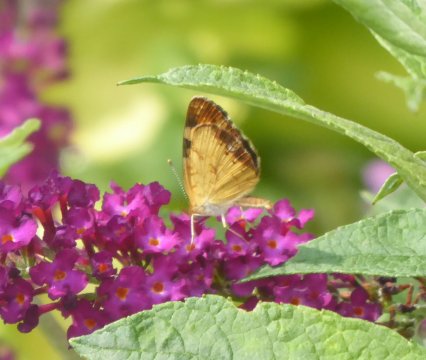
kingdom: Animalia
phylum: Arthropoda
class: Insecta
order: Lepidoptera
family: Nymphalidae
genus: Phyciodes
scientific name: Phyciodes
